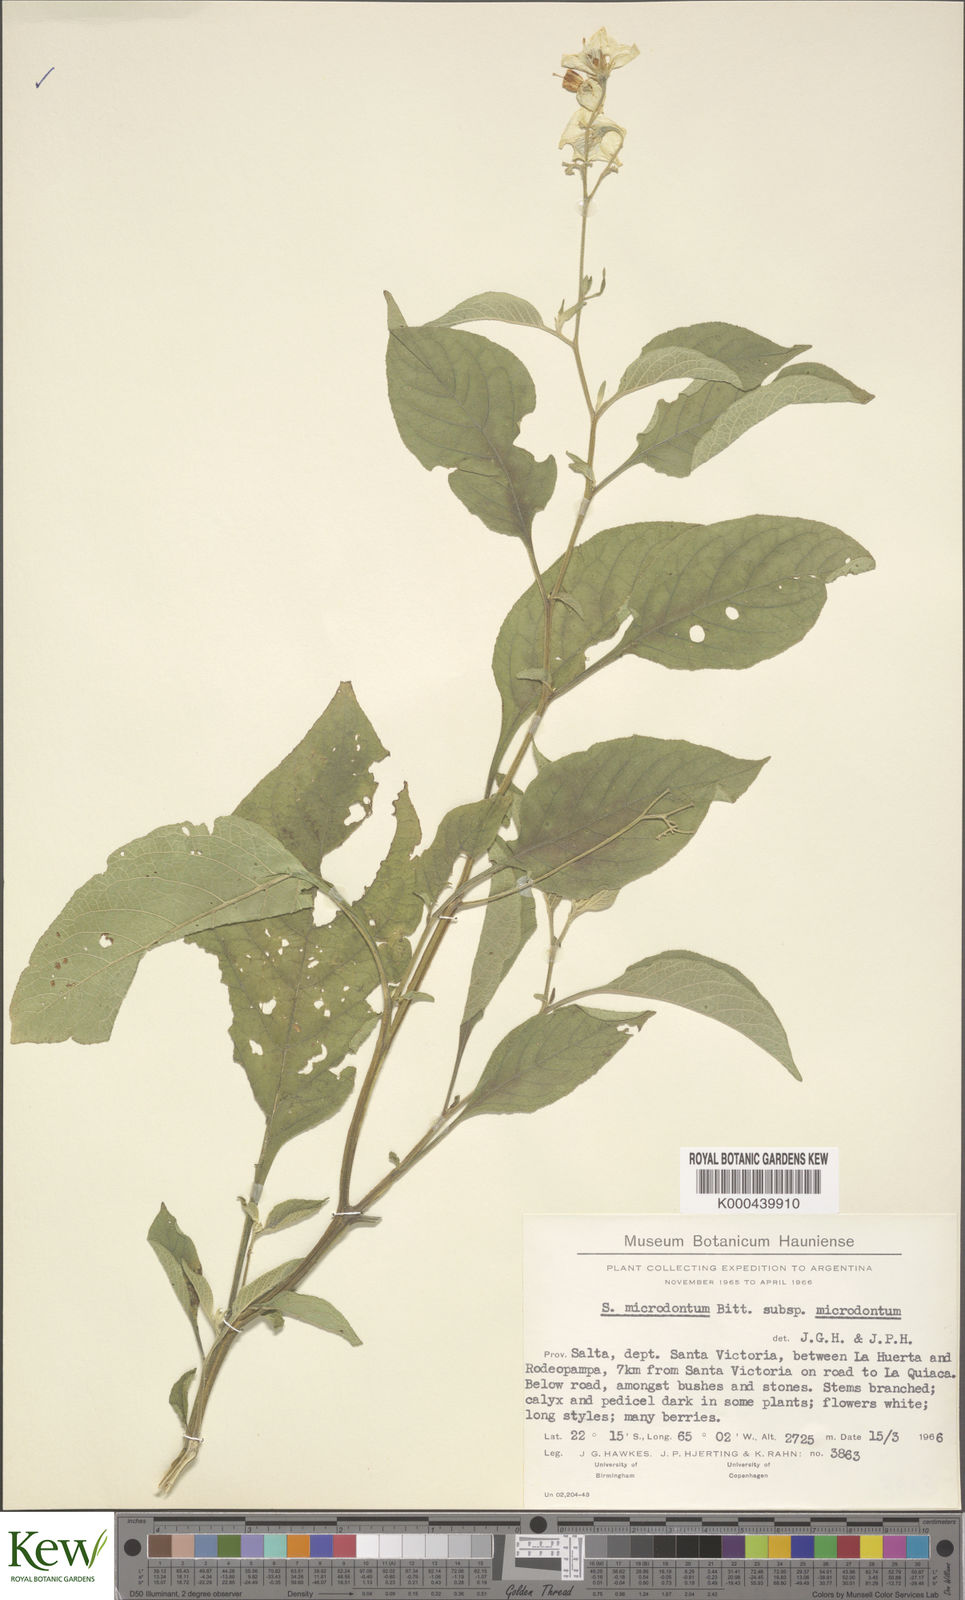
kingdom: Plantae
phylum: Tracheophyta
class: Magnoliopsida
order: Solanales
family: Solanaceae
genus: Solanum
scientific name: Solanum microdontum
